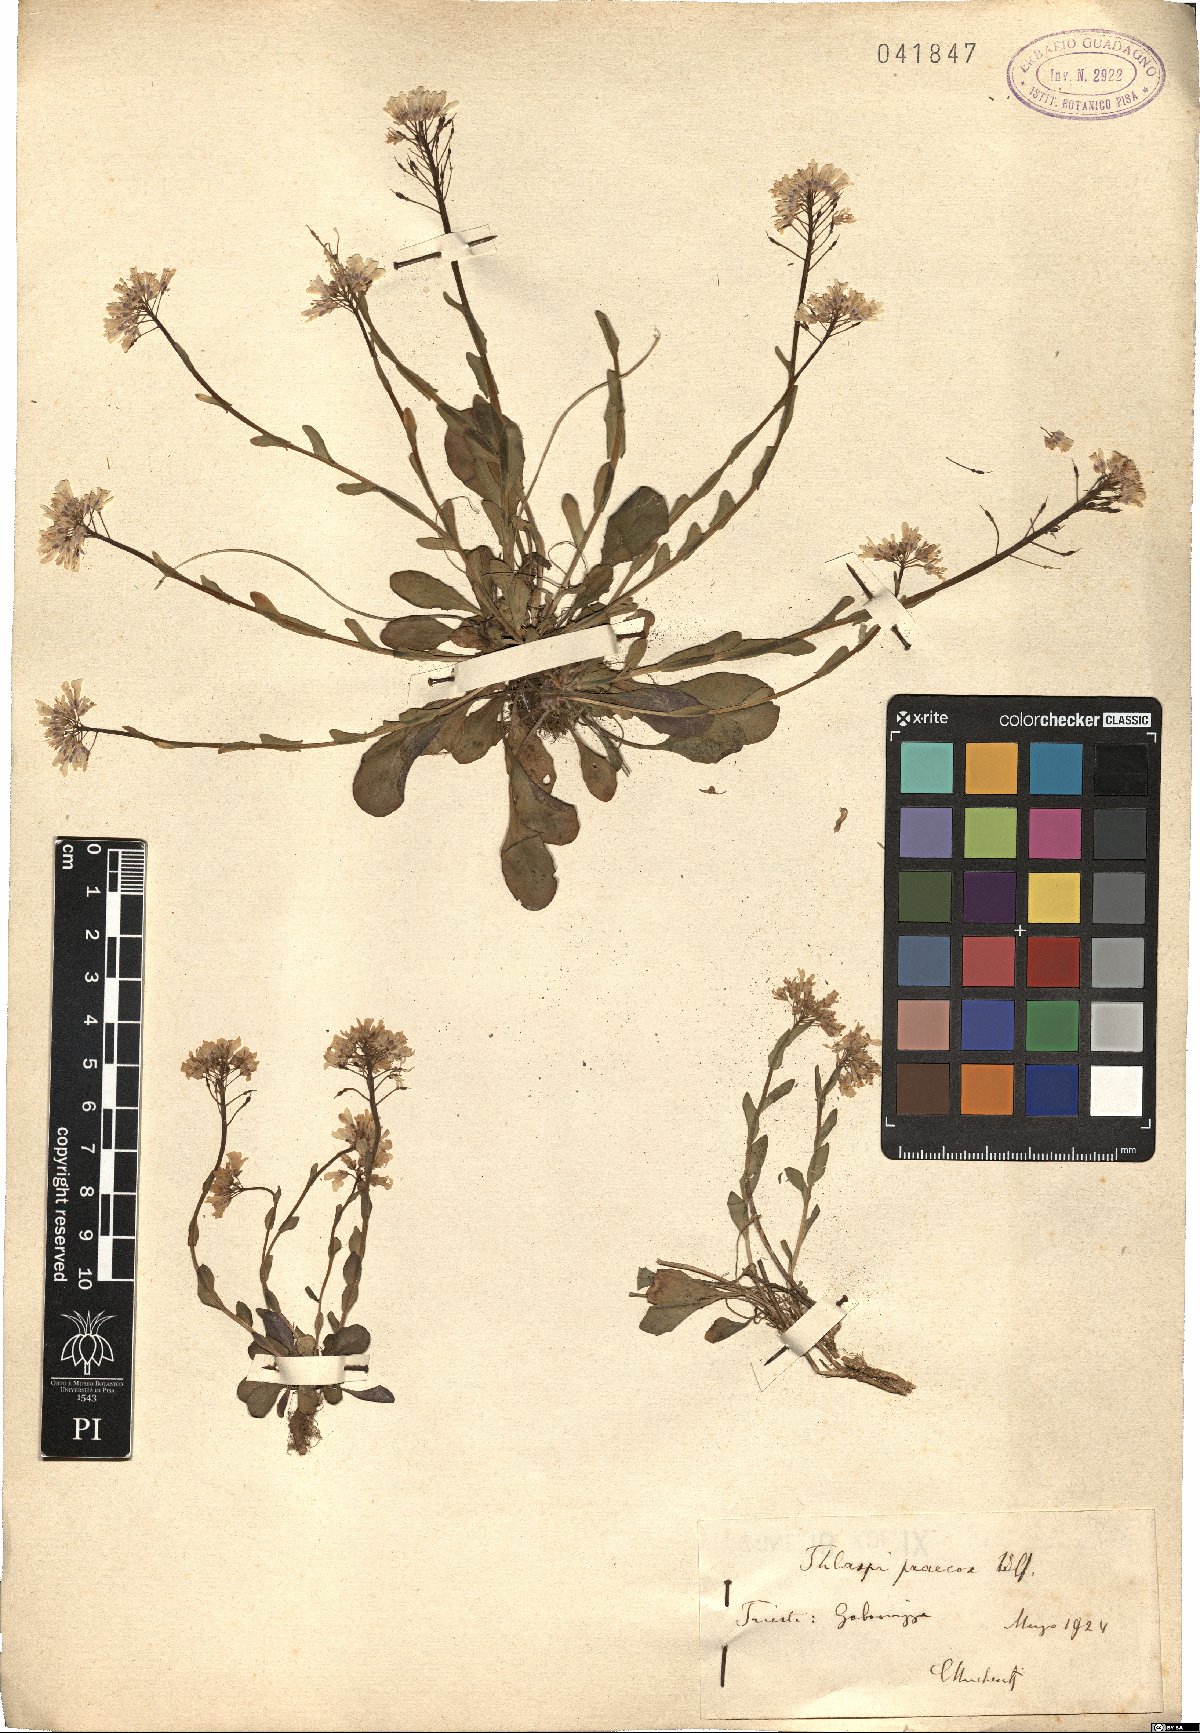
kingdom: Plantae
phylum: Tracheophyta
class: Magnoliopsida
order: Brassicales
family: Brassicaceae
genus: Noccaea
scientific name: Noccaea praecox
